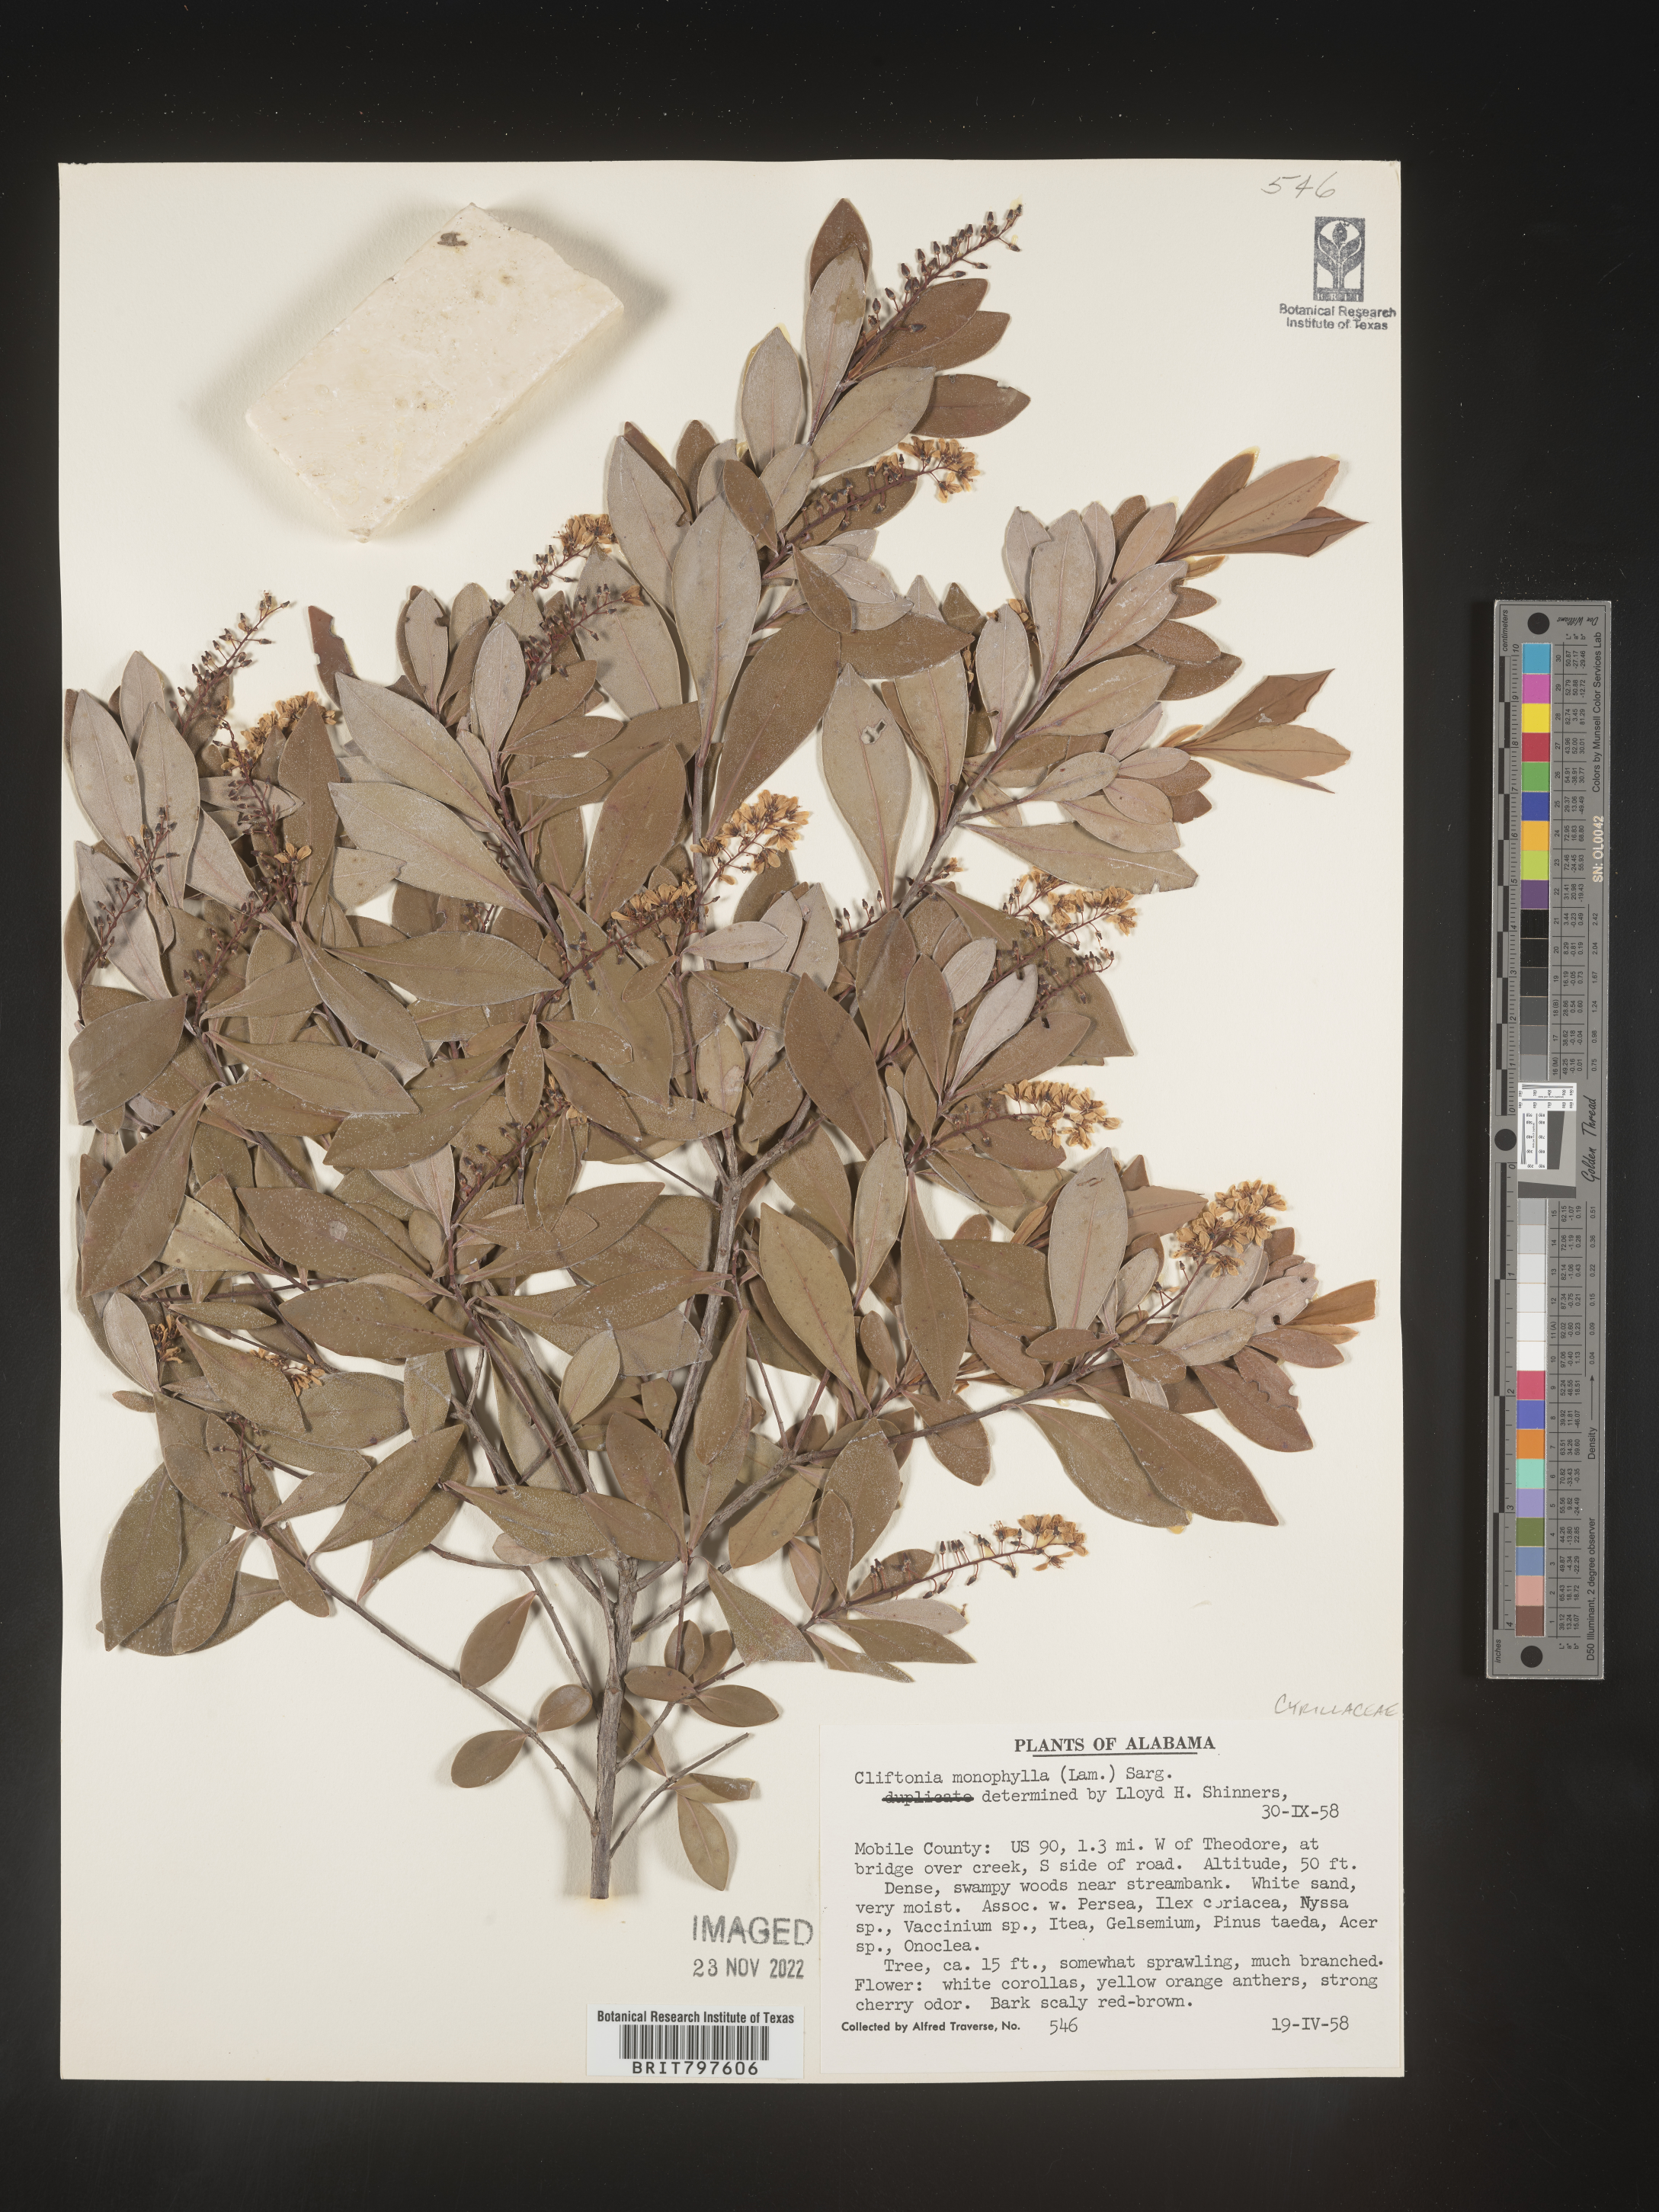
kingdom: Plantae
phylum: Tracheophyta
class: Magnoliopsida
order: Ericales
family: Cyrillaceae
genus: Cliftonia
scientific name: Cliftonia monophylla
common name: Titi
